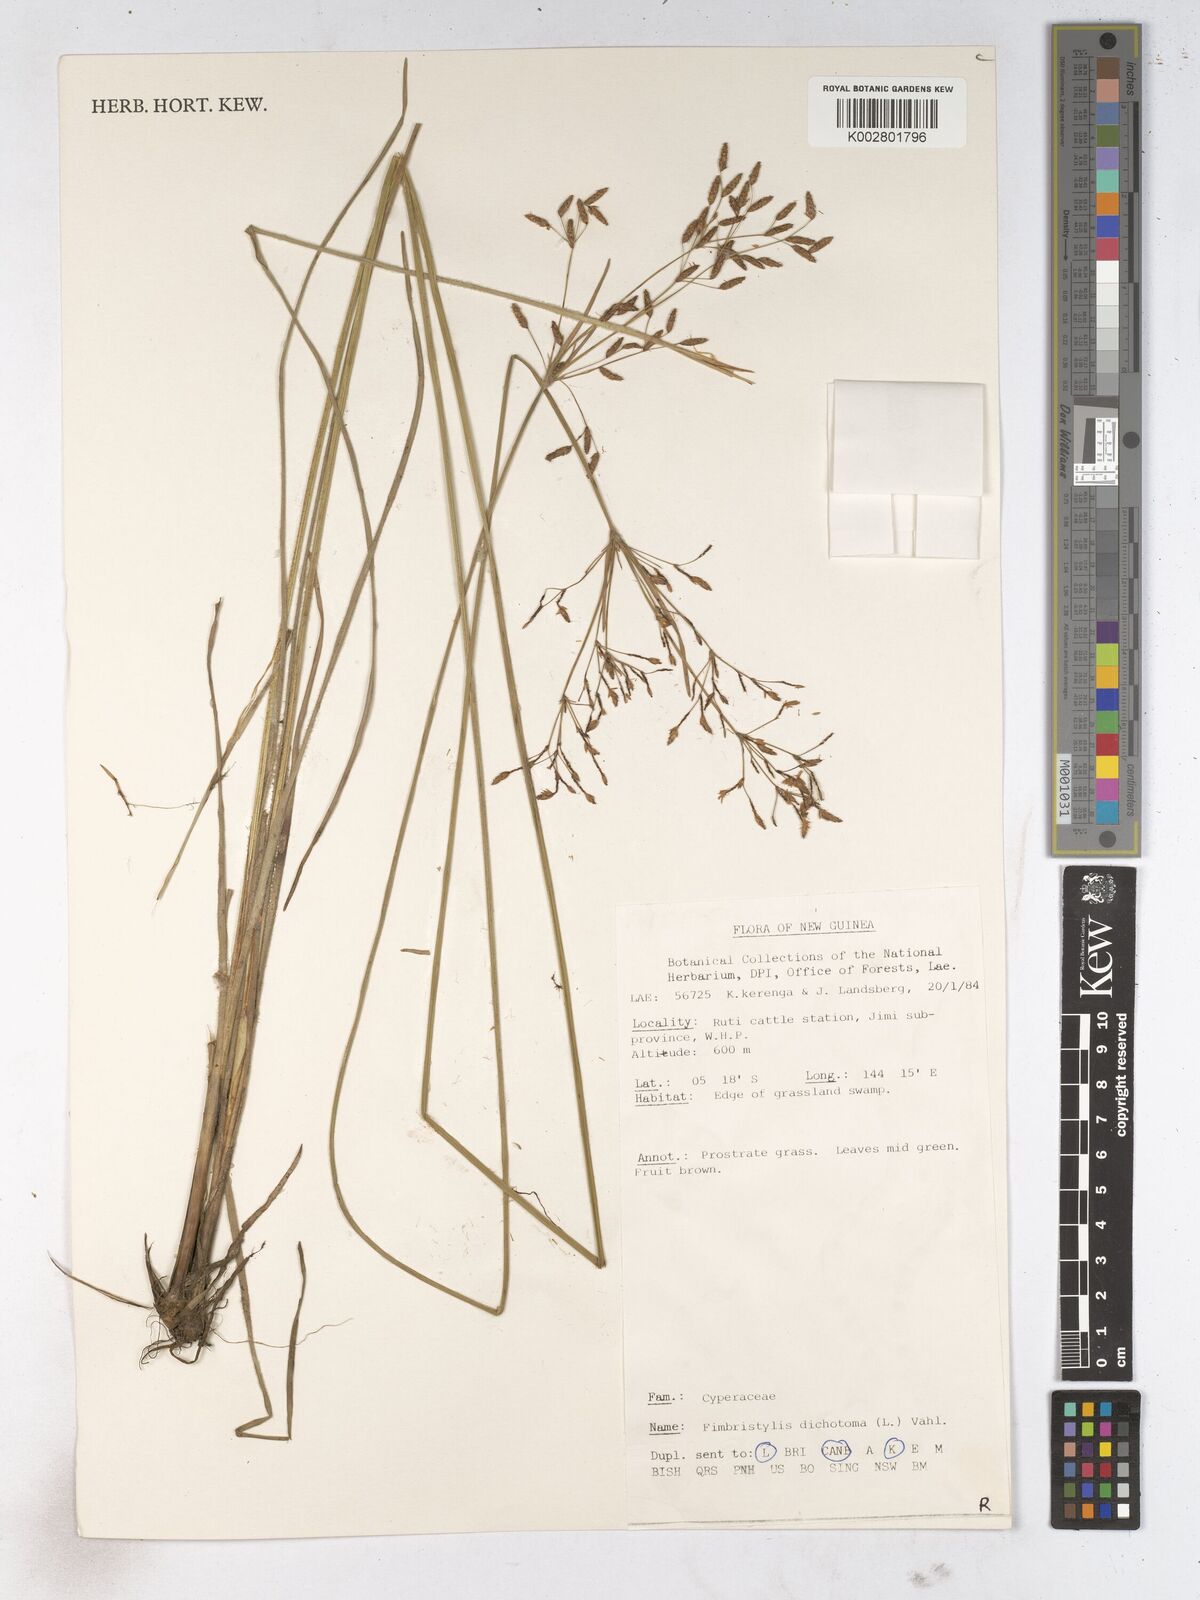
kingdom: Plantae
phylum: Tracheophyta
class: Liliopsida
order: Poales
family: Cyperaceae
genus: Fimbristylis
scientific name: Fimbristylis dichotoma
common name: Forked fimbry
